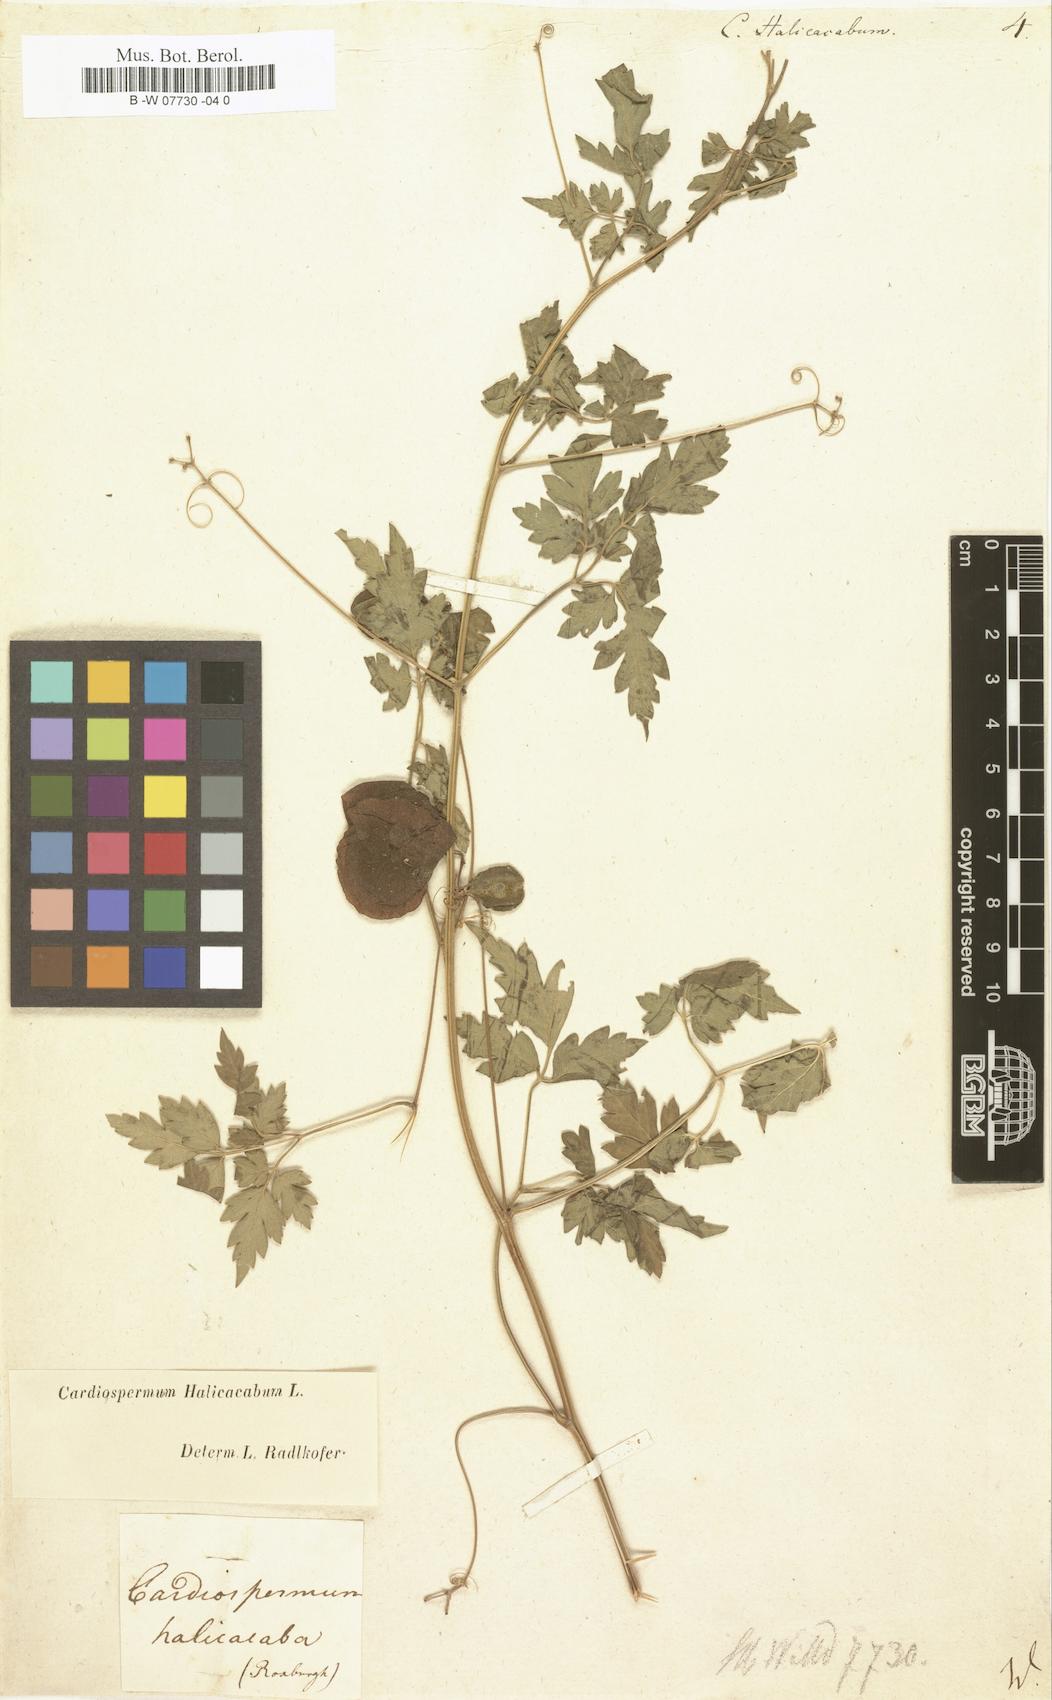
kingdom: Plantae
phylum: Tracheophyta
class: Magnoliopsida
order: Sapindales
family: Sapindaceae
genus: Cardiospermum
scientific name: Cardiospermum halicacabum
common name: Balloon vine
